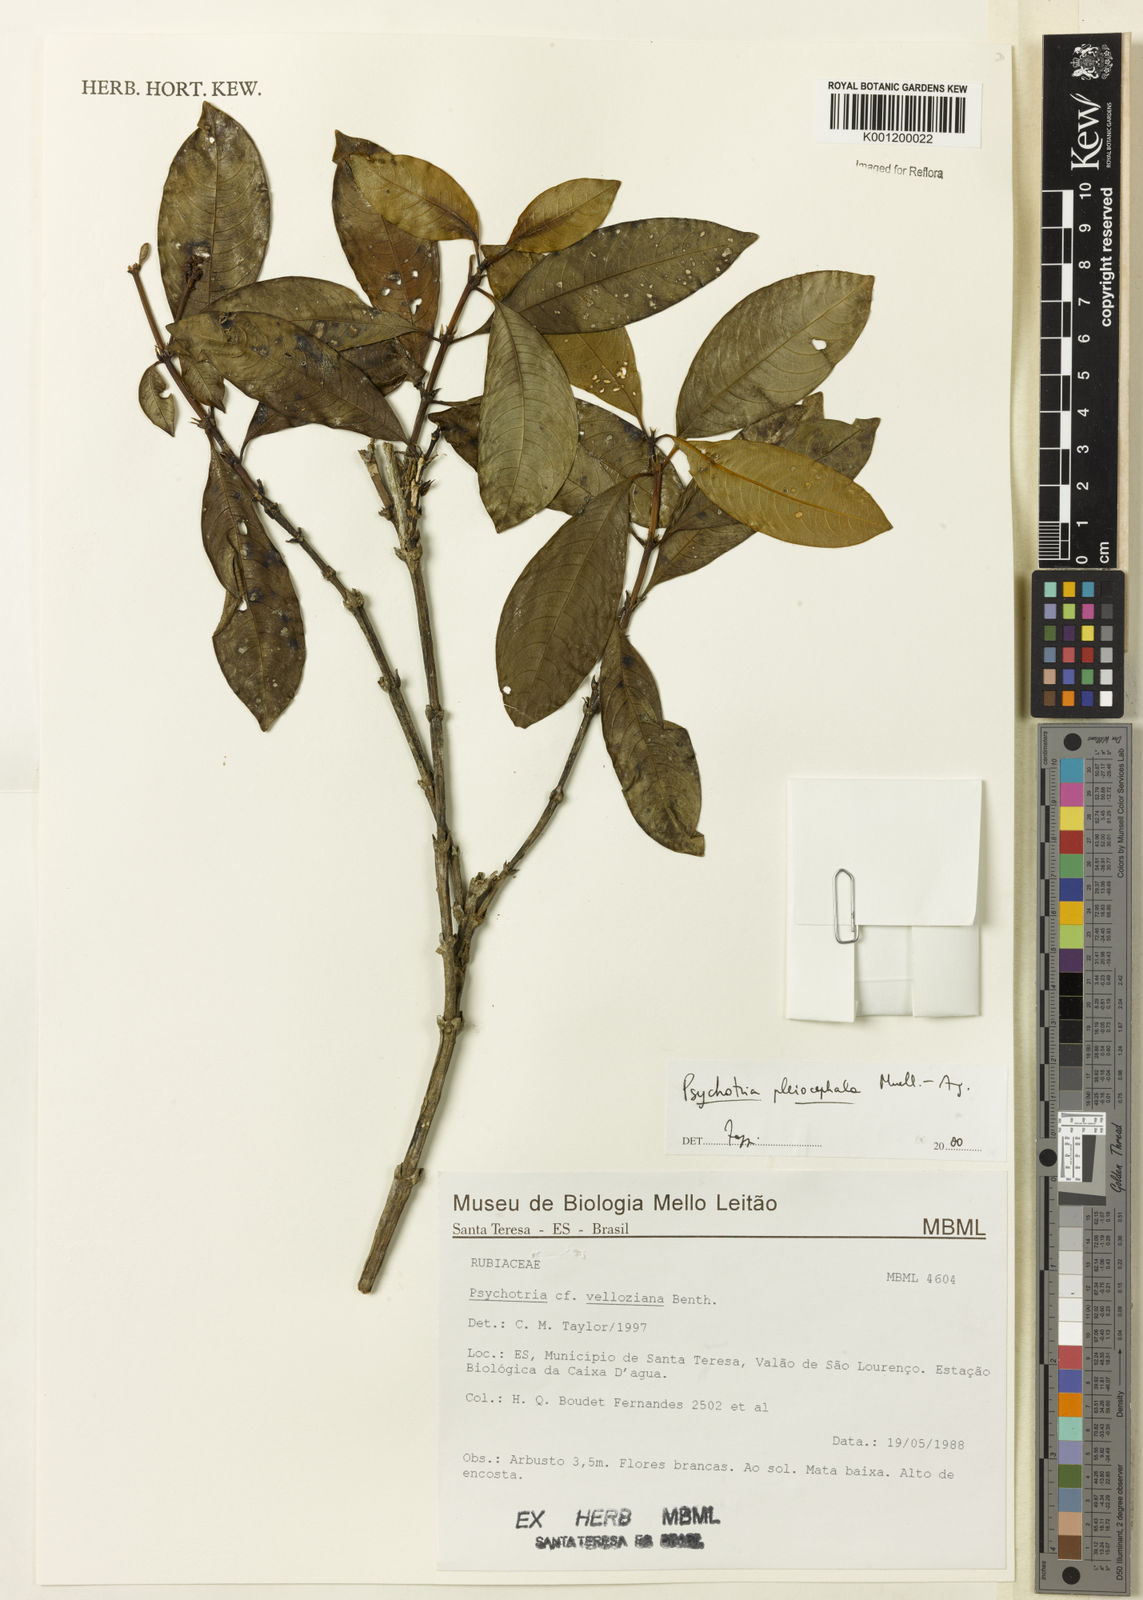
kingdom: Plantae
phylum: Tracheophyta
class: Magnoliopsida
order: Gentianales
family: Rubiaceae
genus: Psychotria
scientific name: Psychotria
